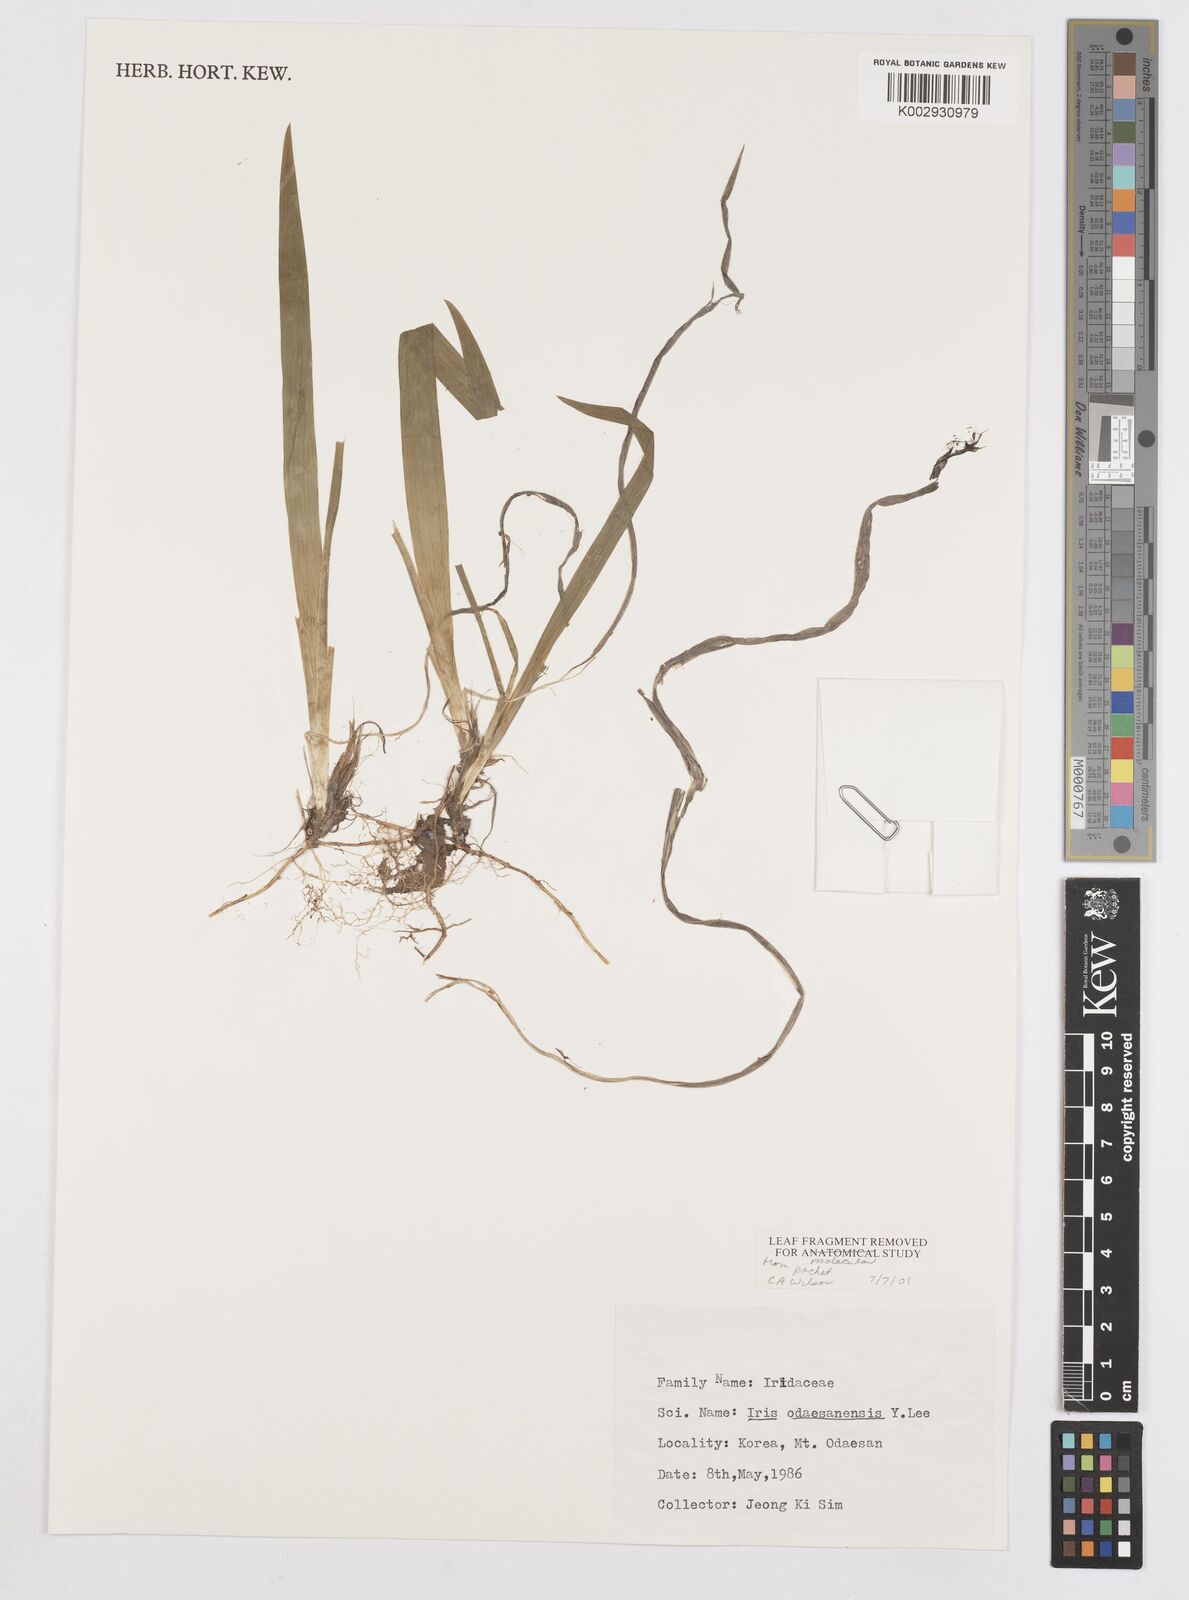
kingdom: Plantae
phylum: Tracheophyta
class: Liliopsida
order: Asparagales
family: Iridaceae
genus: Iris
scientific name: Iris odaesanensis
